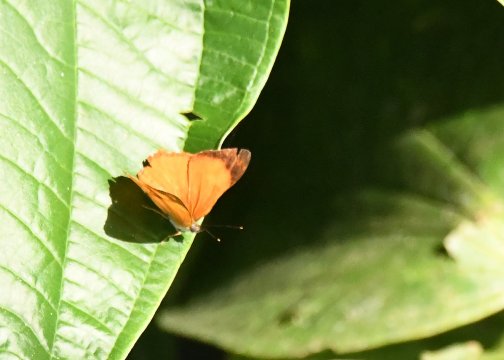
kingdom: Animalia
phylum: Arthropoda
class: Insecta
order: Lepidoptera
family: Nymphalidae
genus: Nica
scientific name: Nica flavilla
